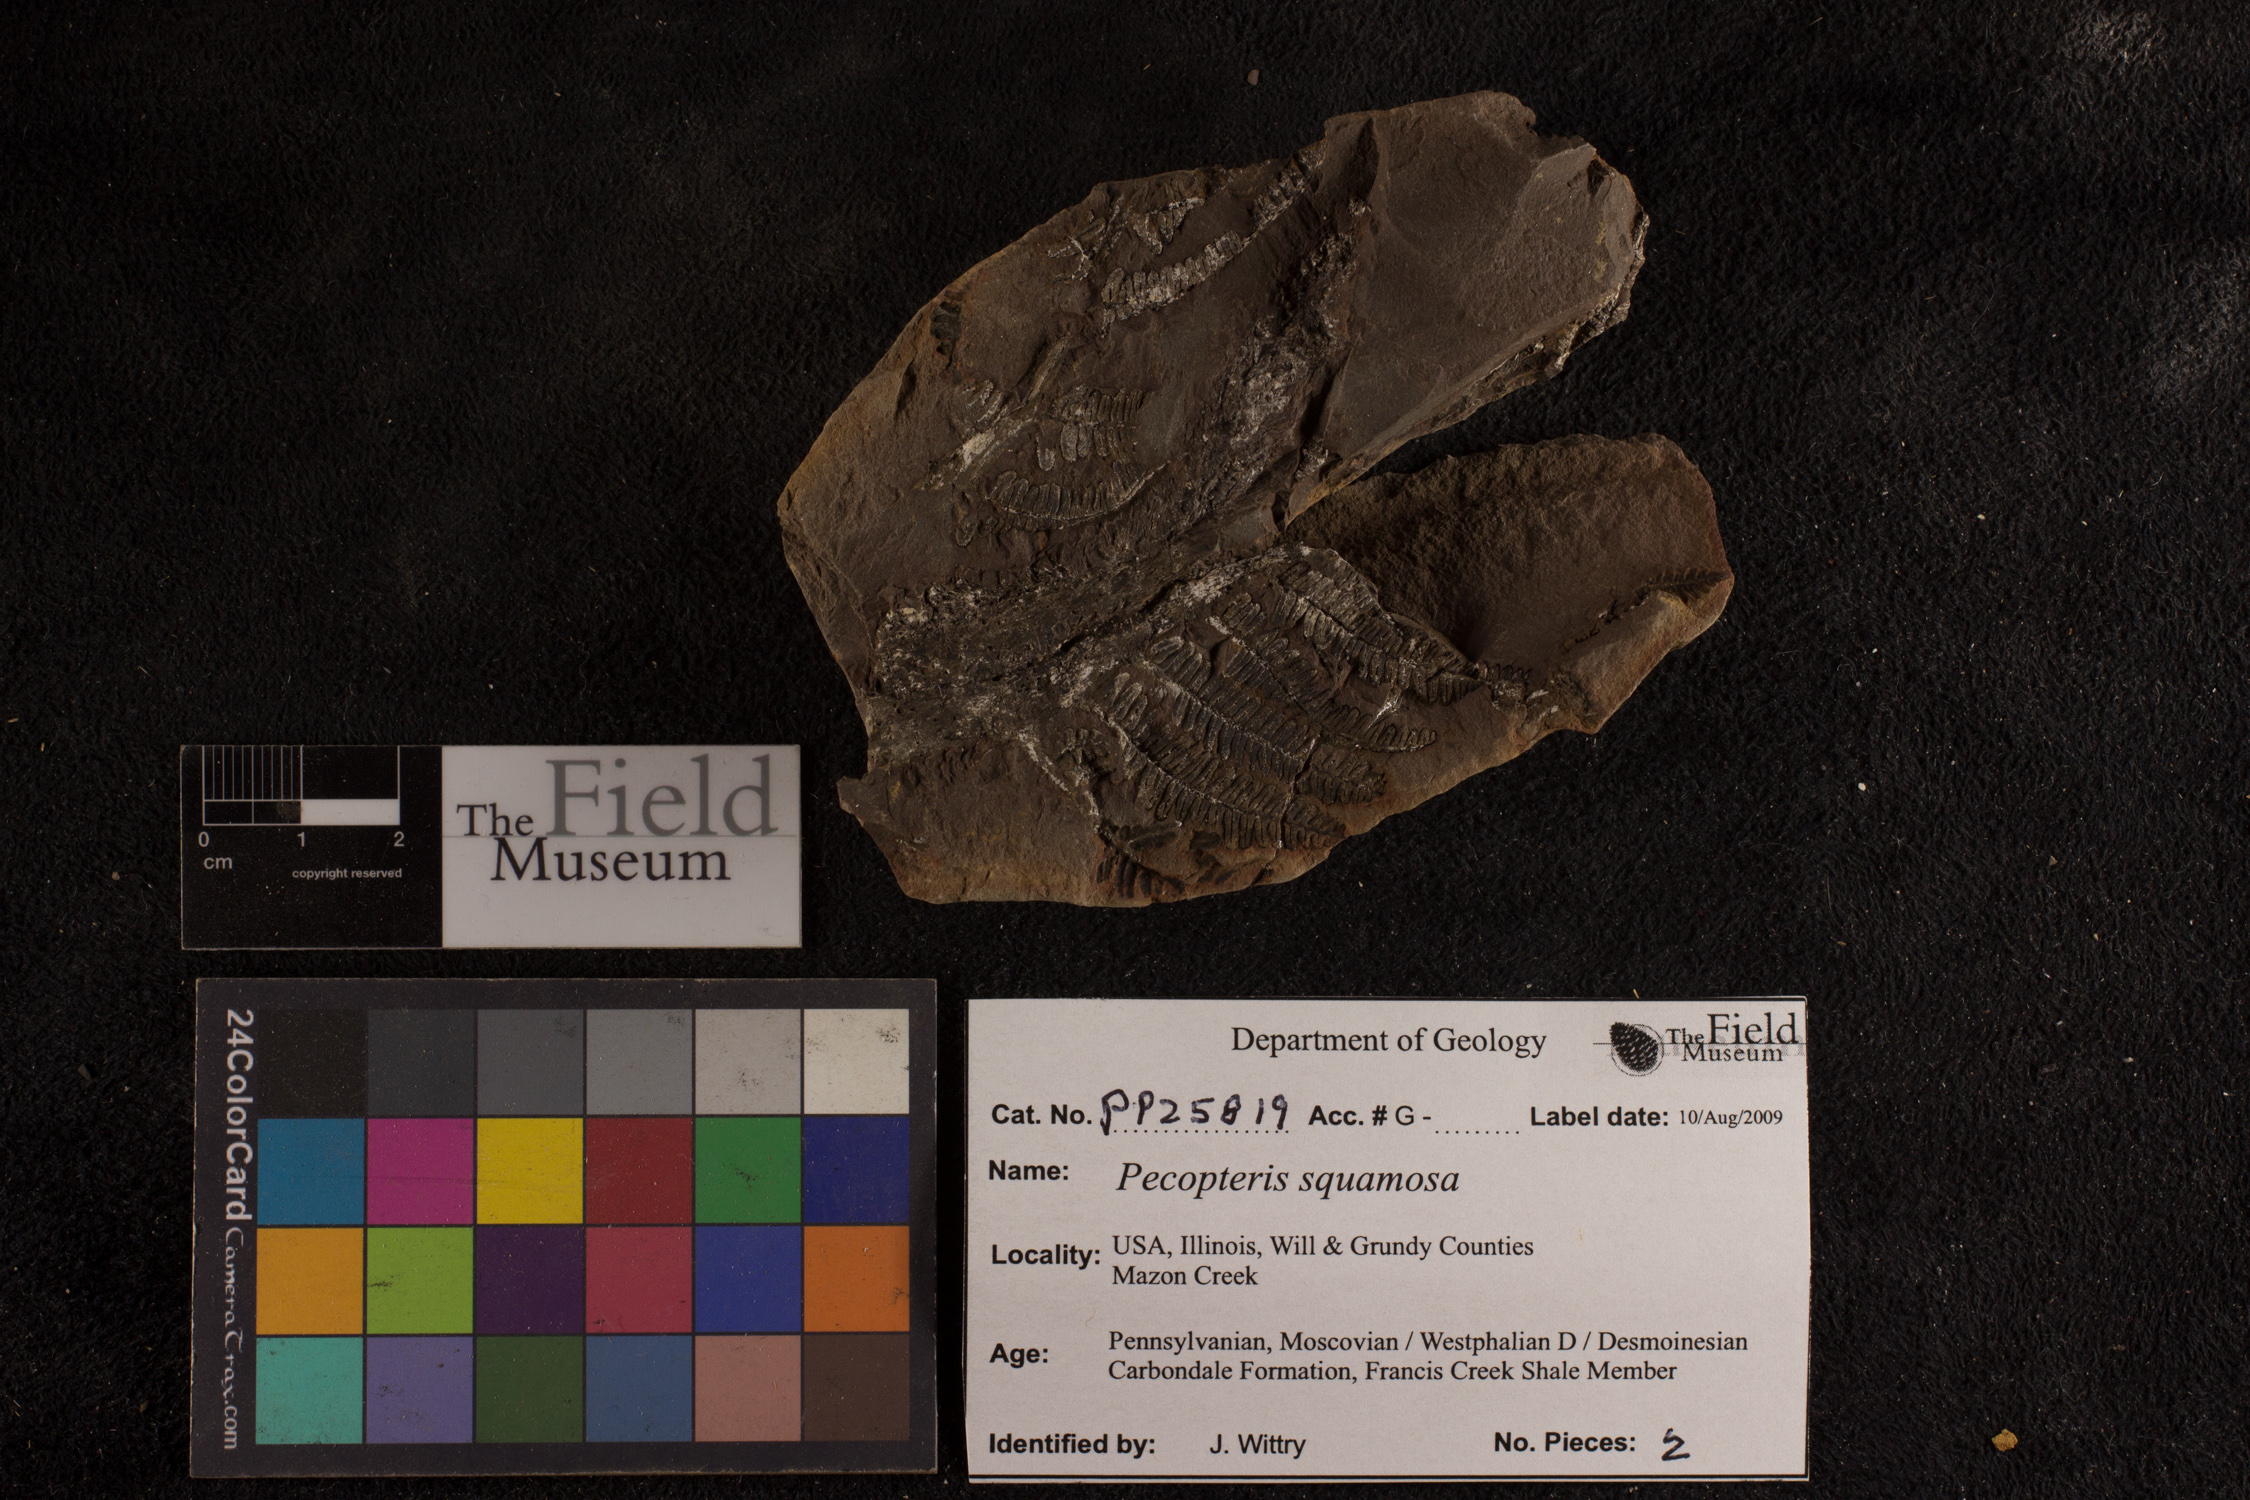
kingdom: Plantae
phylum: Tracheophyta
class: Polypodiopsida
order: Marattiales
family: Asterothecaceae
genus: Pecopteris
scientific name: Pecopteris
